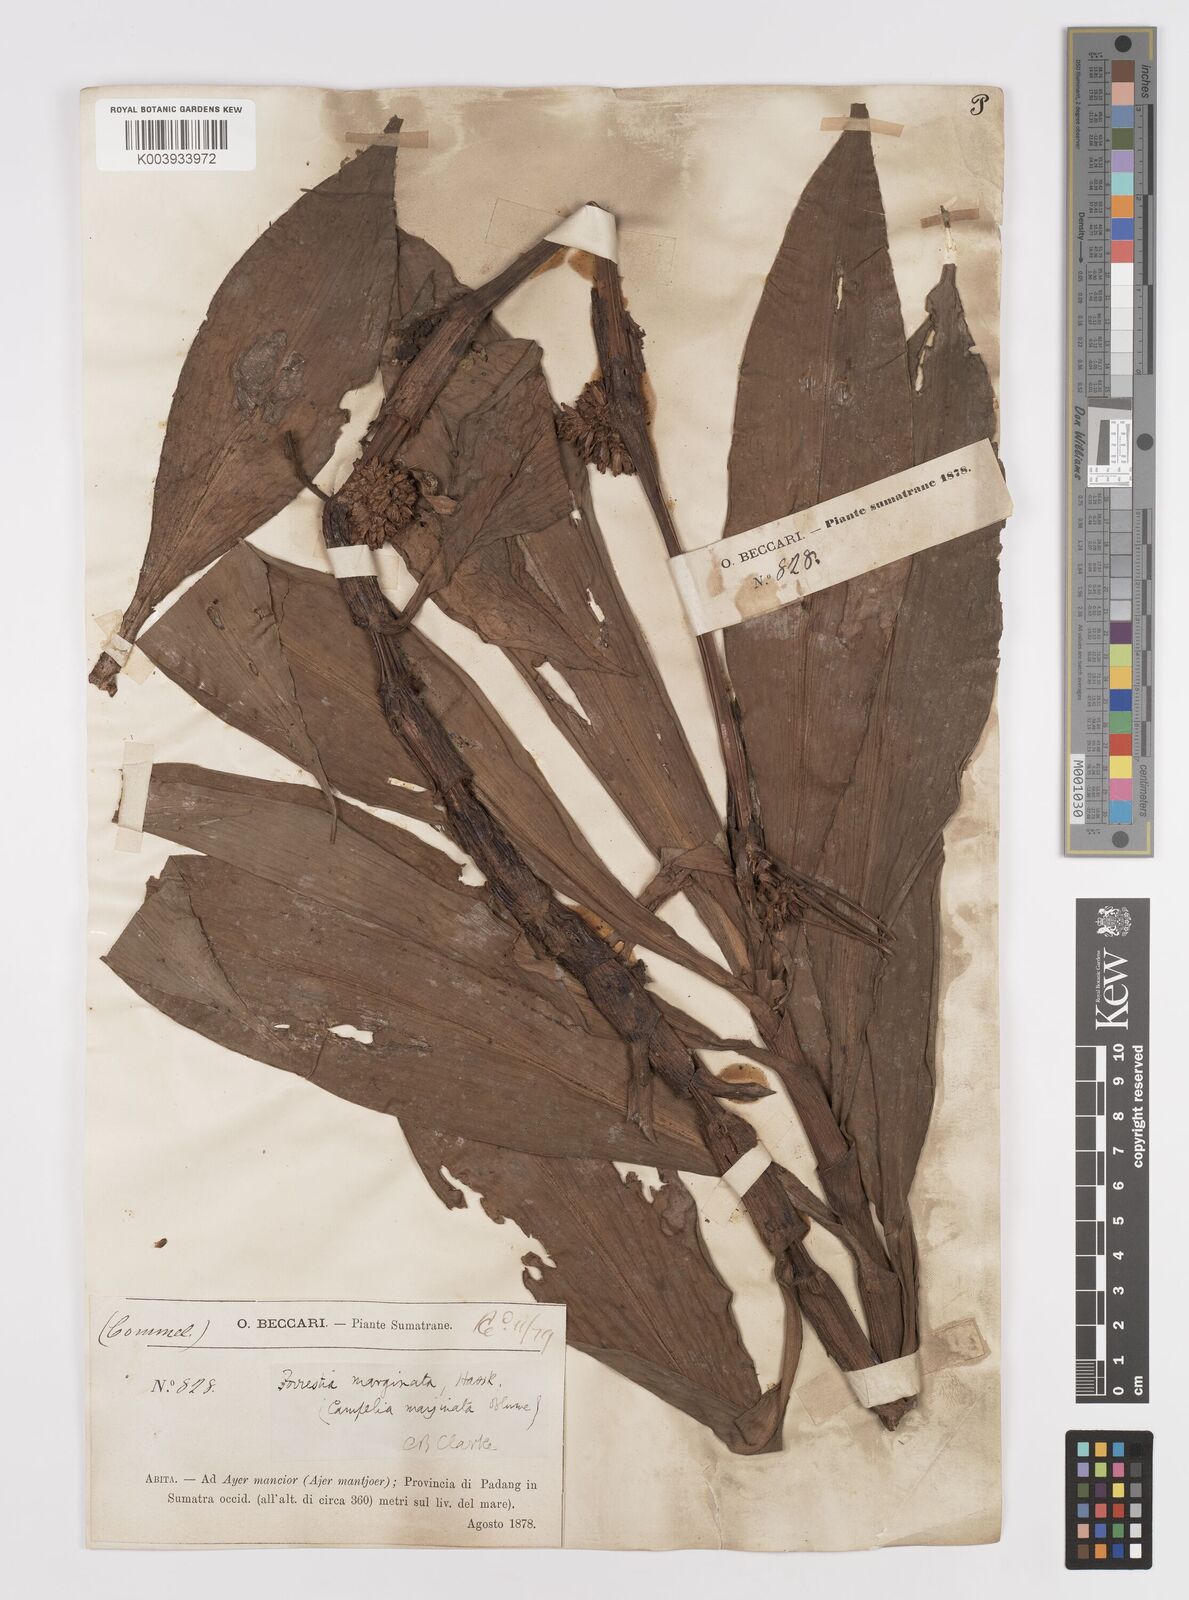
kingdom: Plantae
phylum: Tracheophyta
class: Liliopsida
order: Commelinales
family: Commelinaceae
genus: Amischotolype
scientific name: Amischotolype marginata
